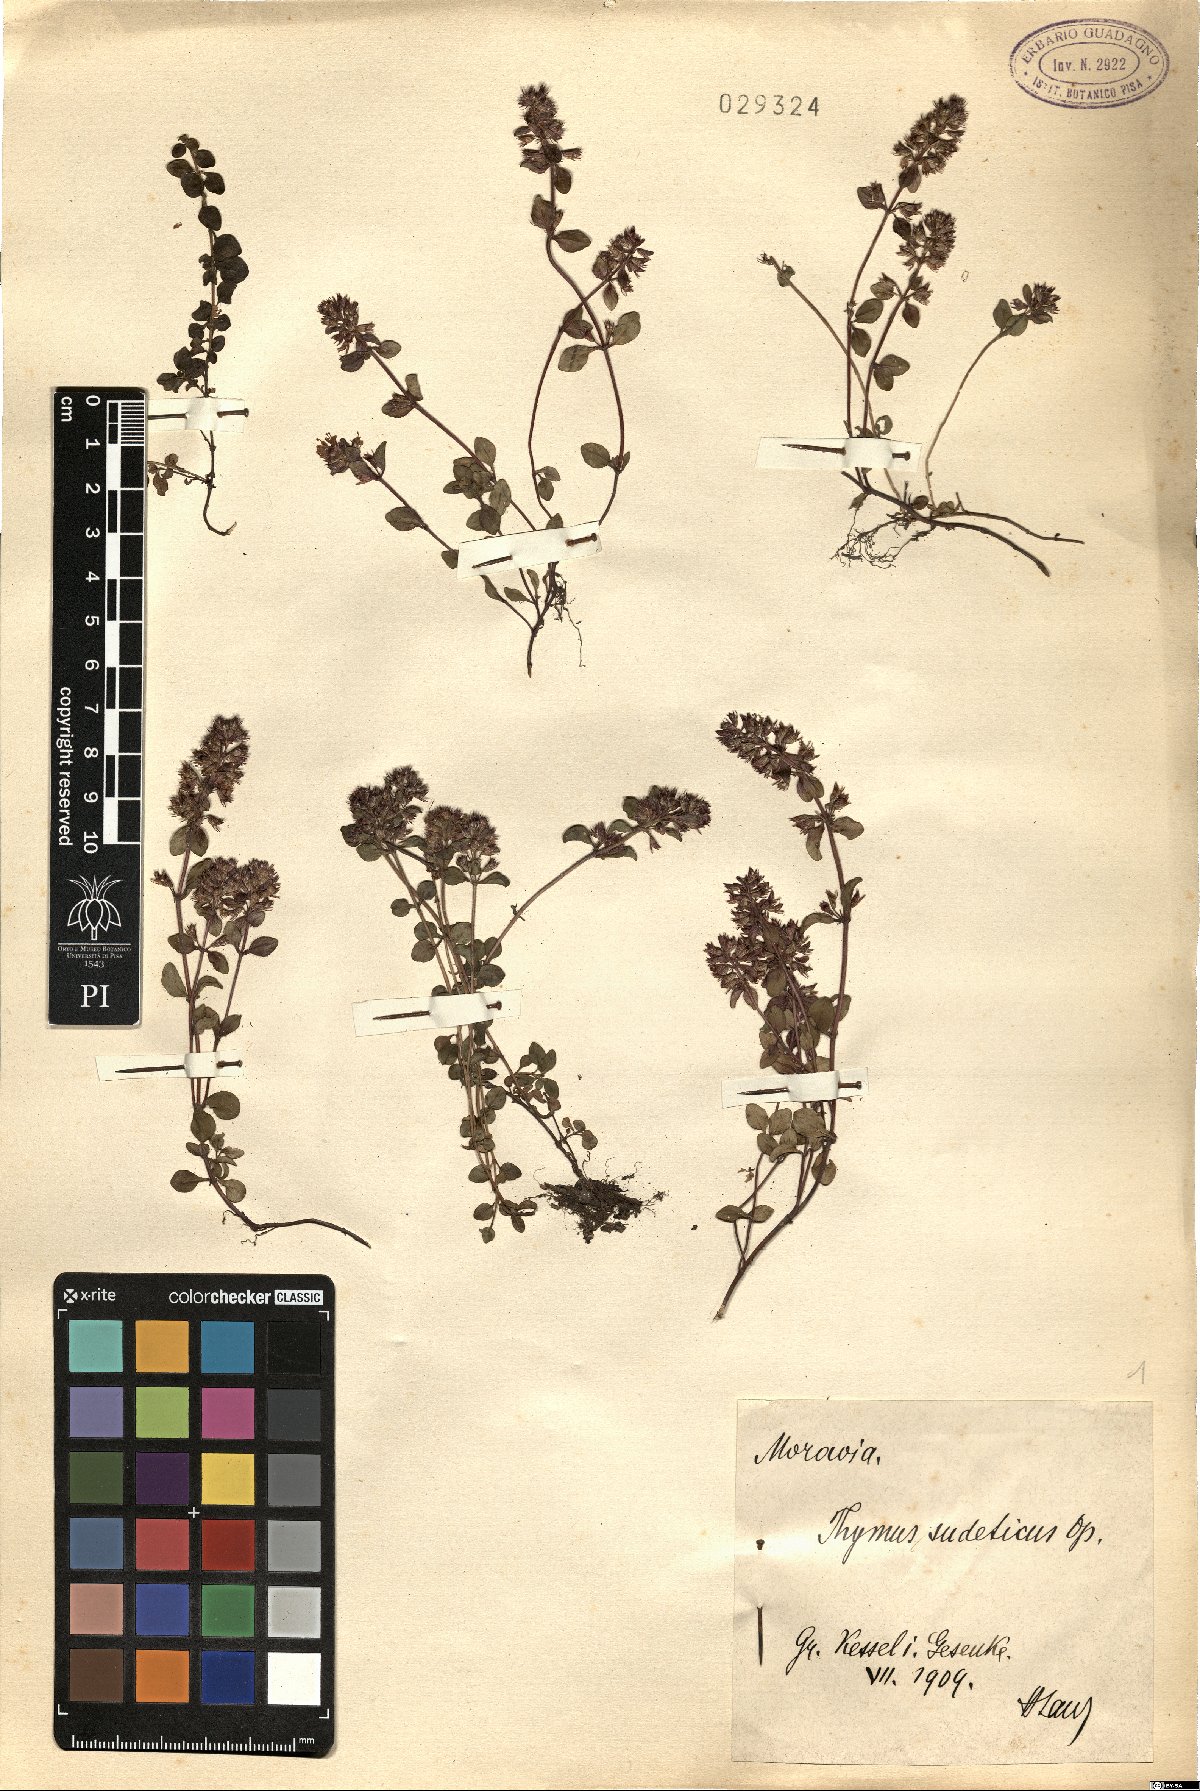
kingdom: Plantae
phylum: Tracheophyta
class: Magnoliopsida
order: Lamiales
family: Lamiaceae
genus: Thymus
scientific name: Thymus pulcherrimus
